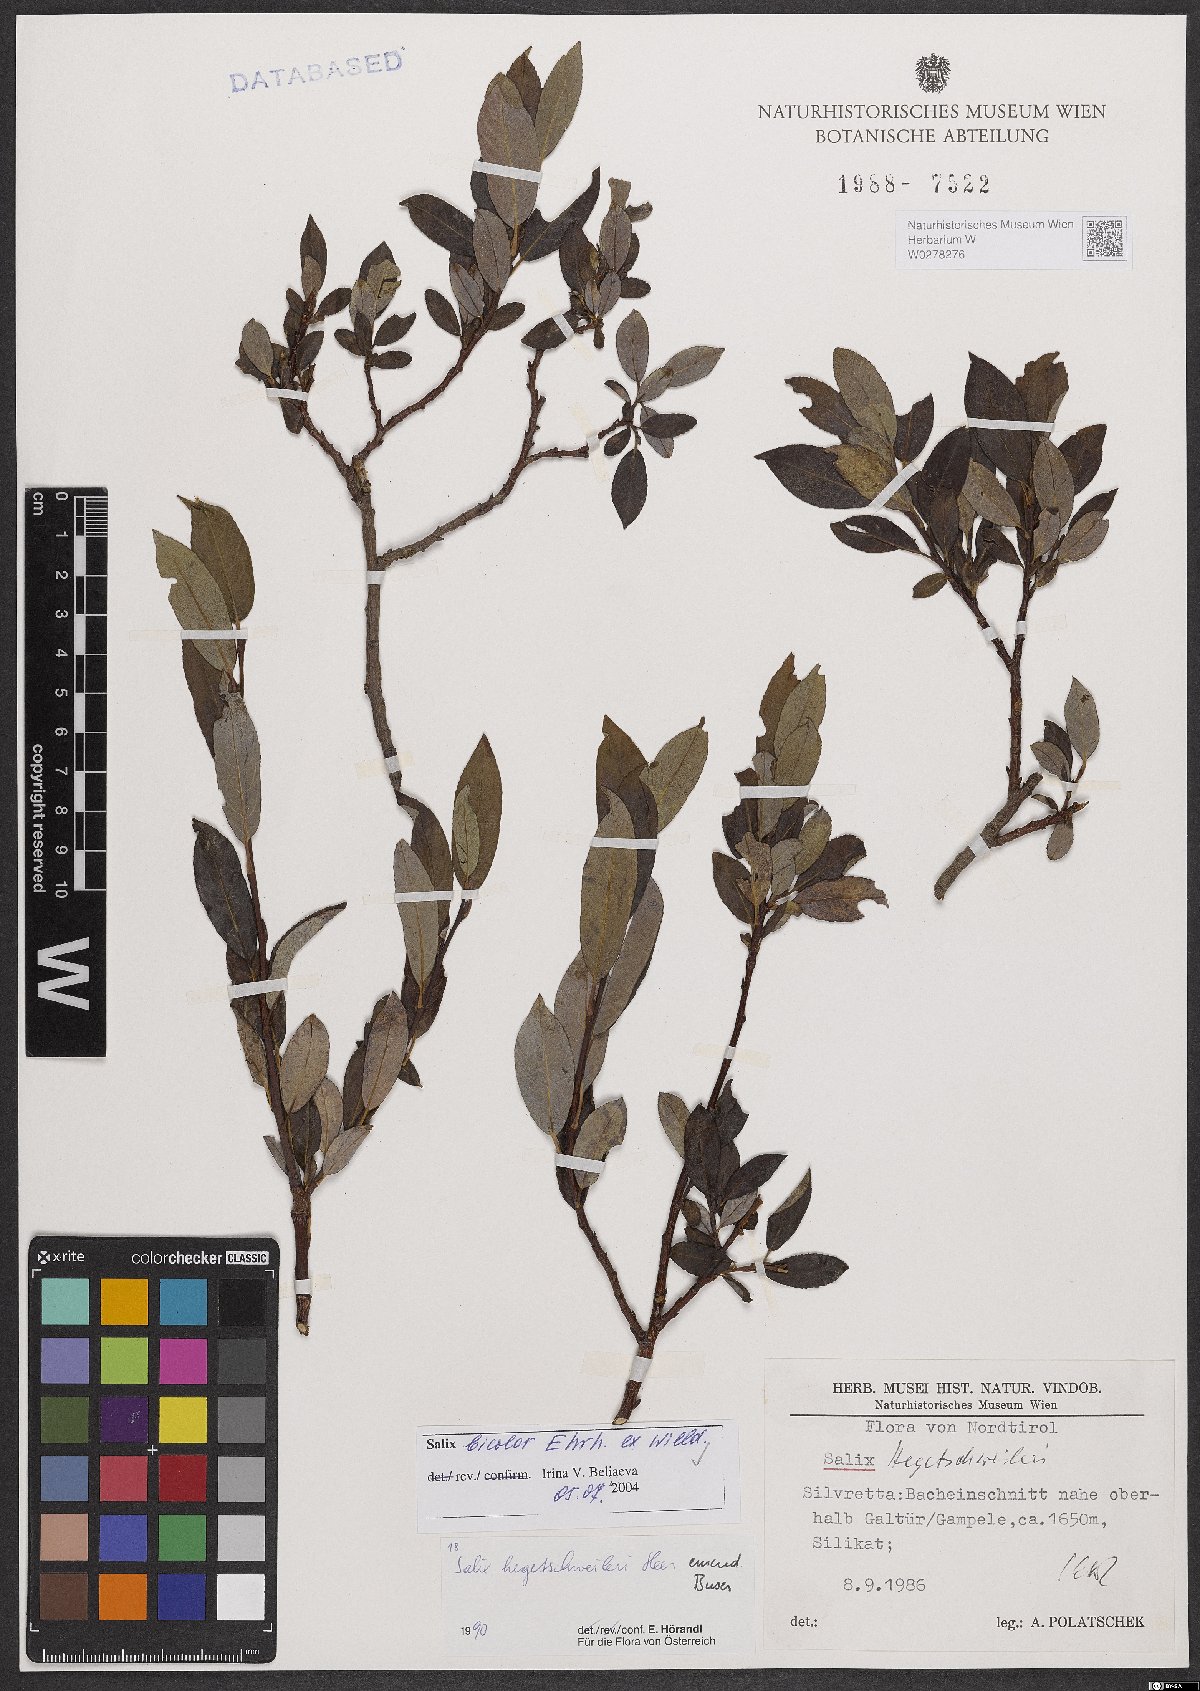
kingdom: Plantae
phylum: Tracheophyta
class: Magnoliopsida
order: Malpighiales
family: Salicaceae
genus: Salix
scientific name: Salix bicolor
